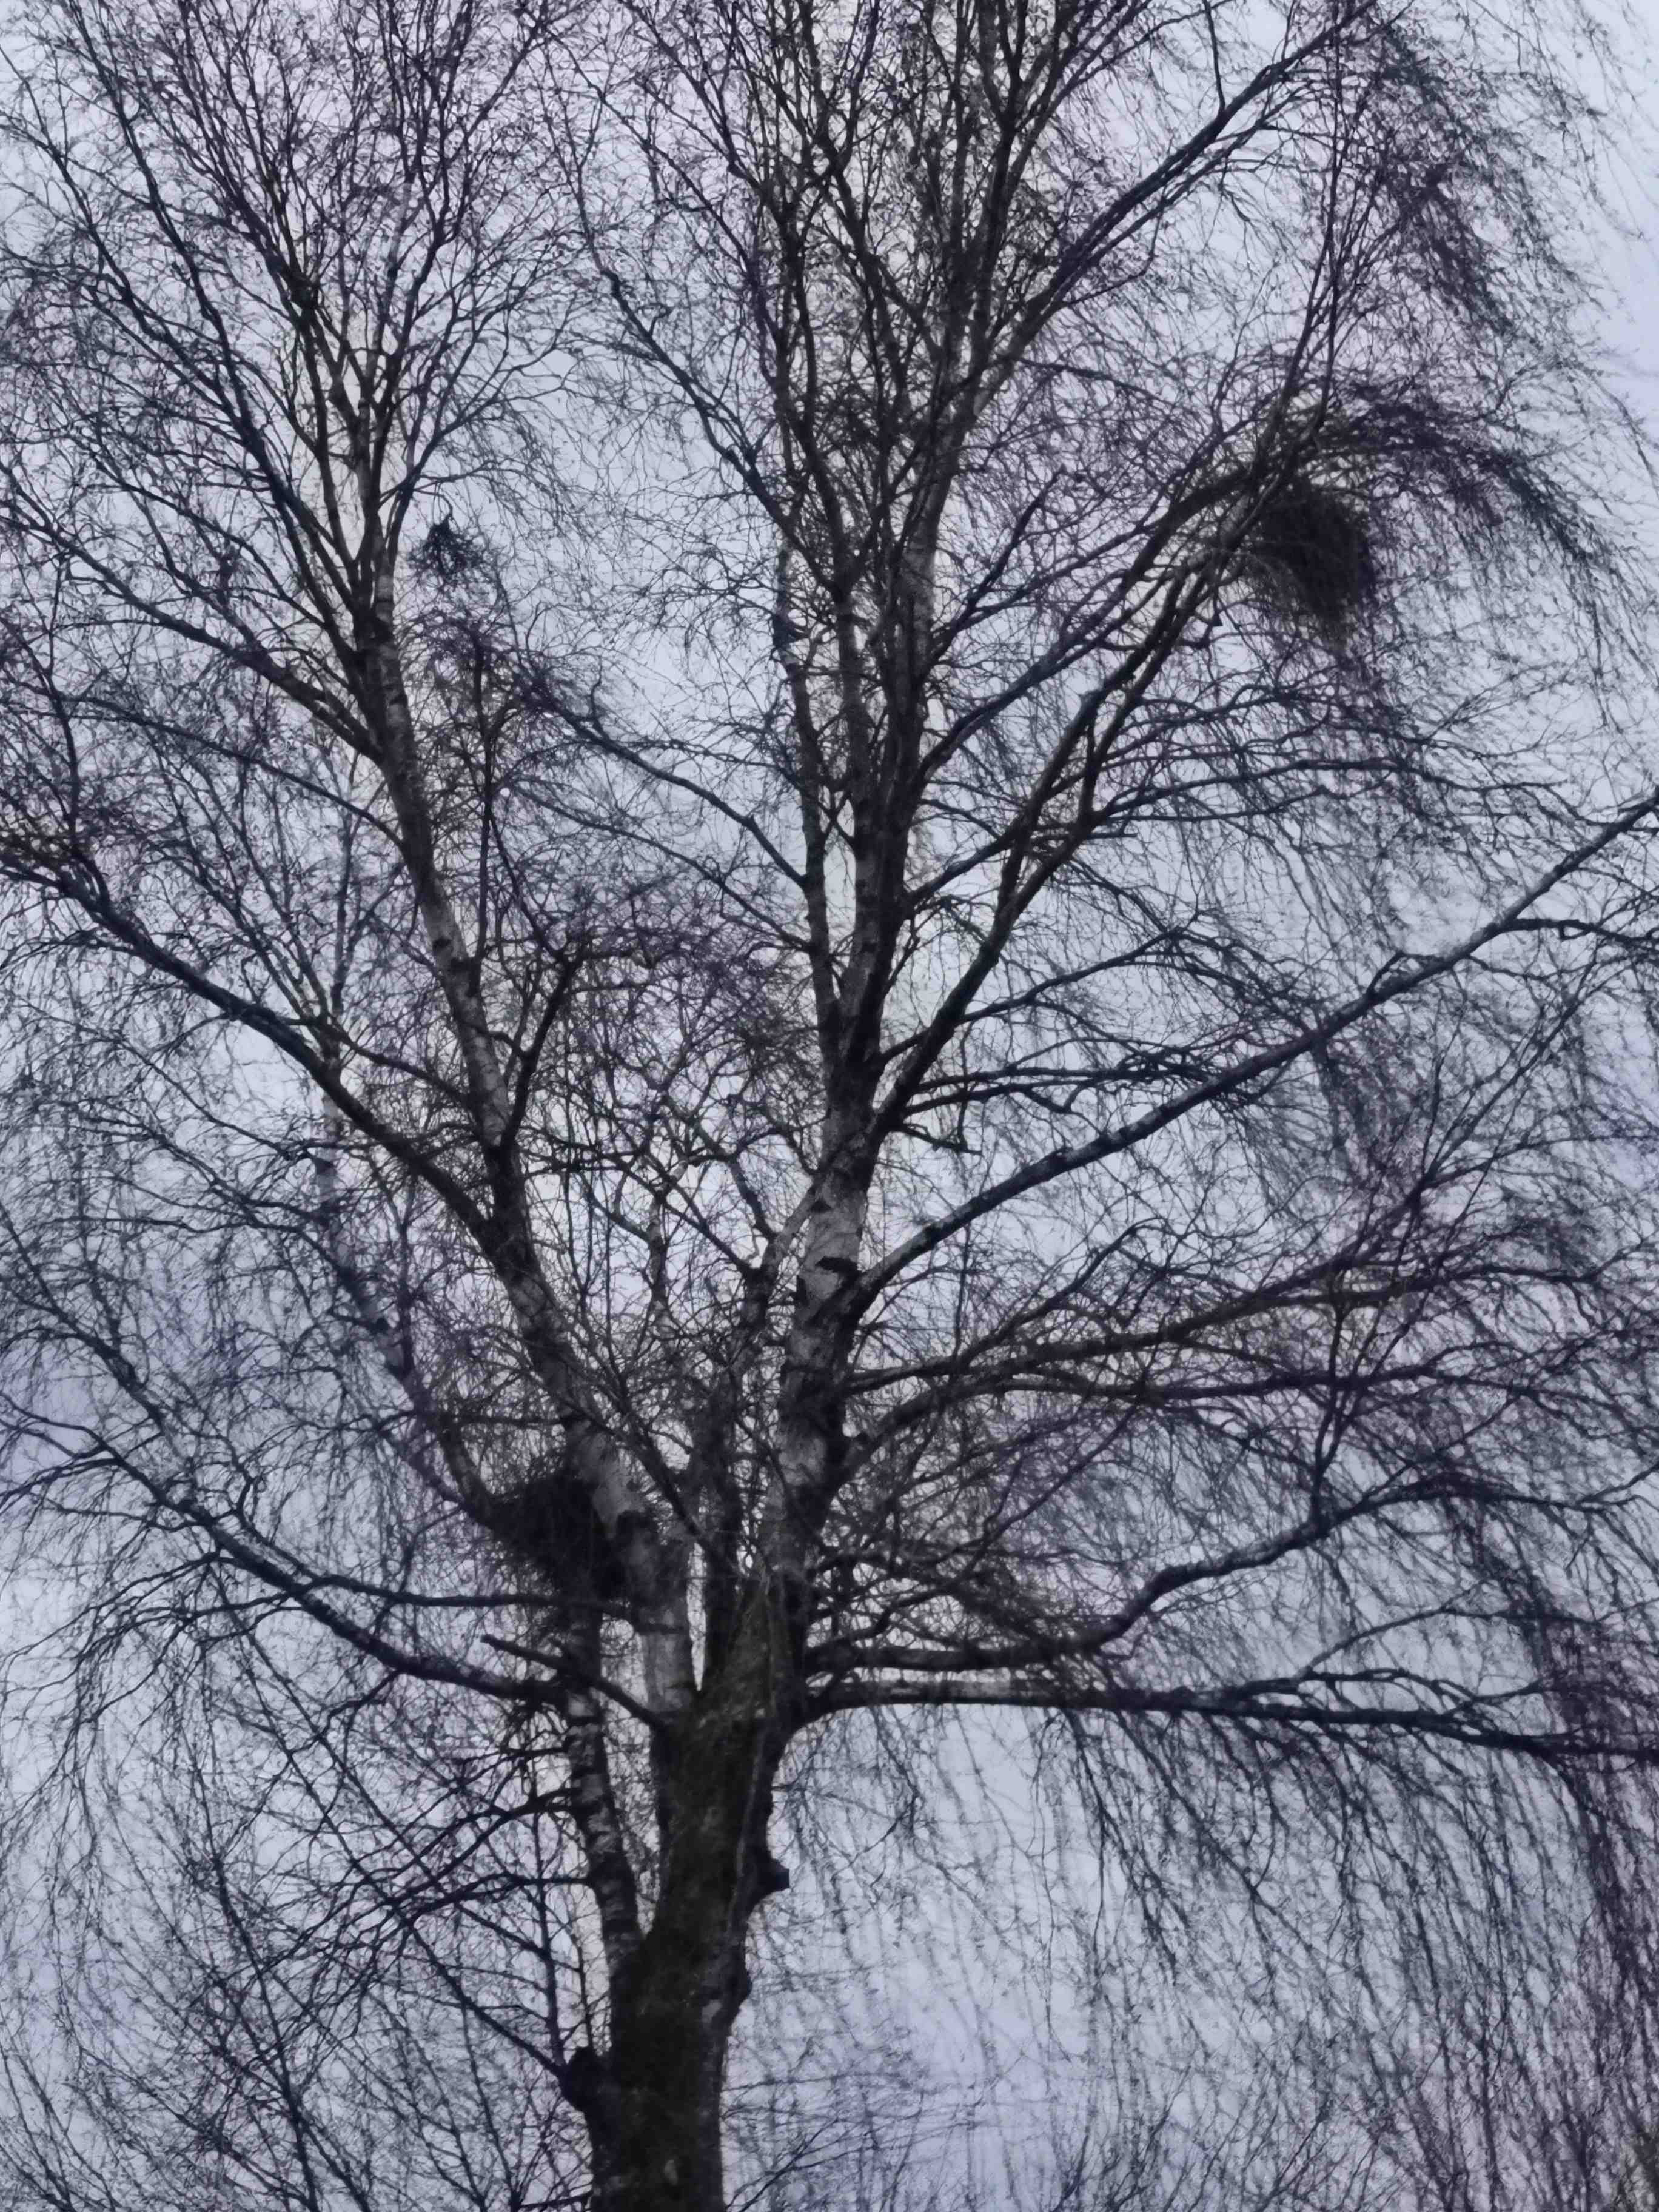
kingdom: Fungi
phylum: Ascomycota
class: Taphrinomycetes
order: Taphrinales
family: Taphrinaceae
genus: Taphrina
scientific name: Taphrina betulina
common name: hekse-sækdug
